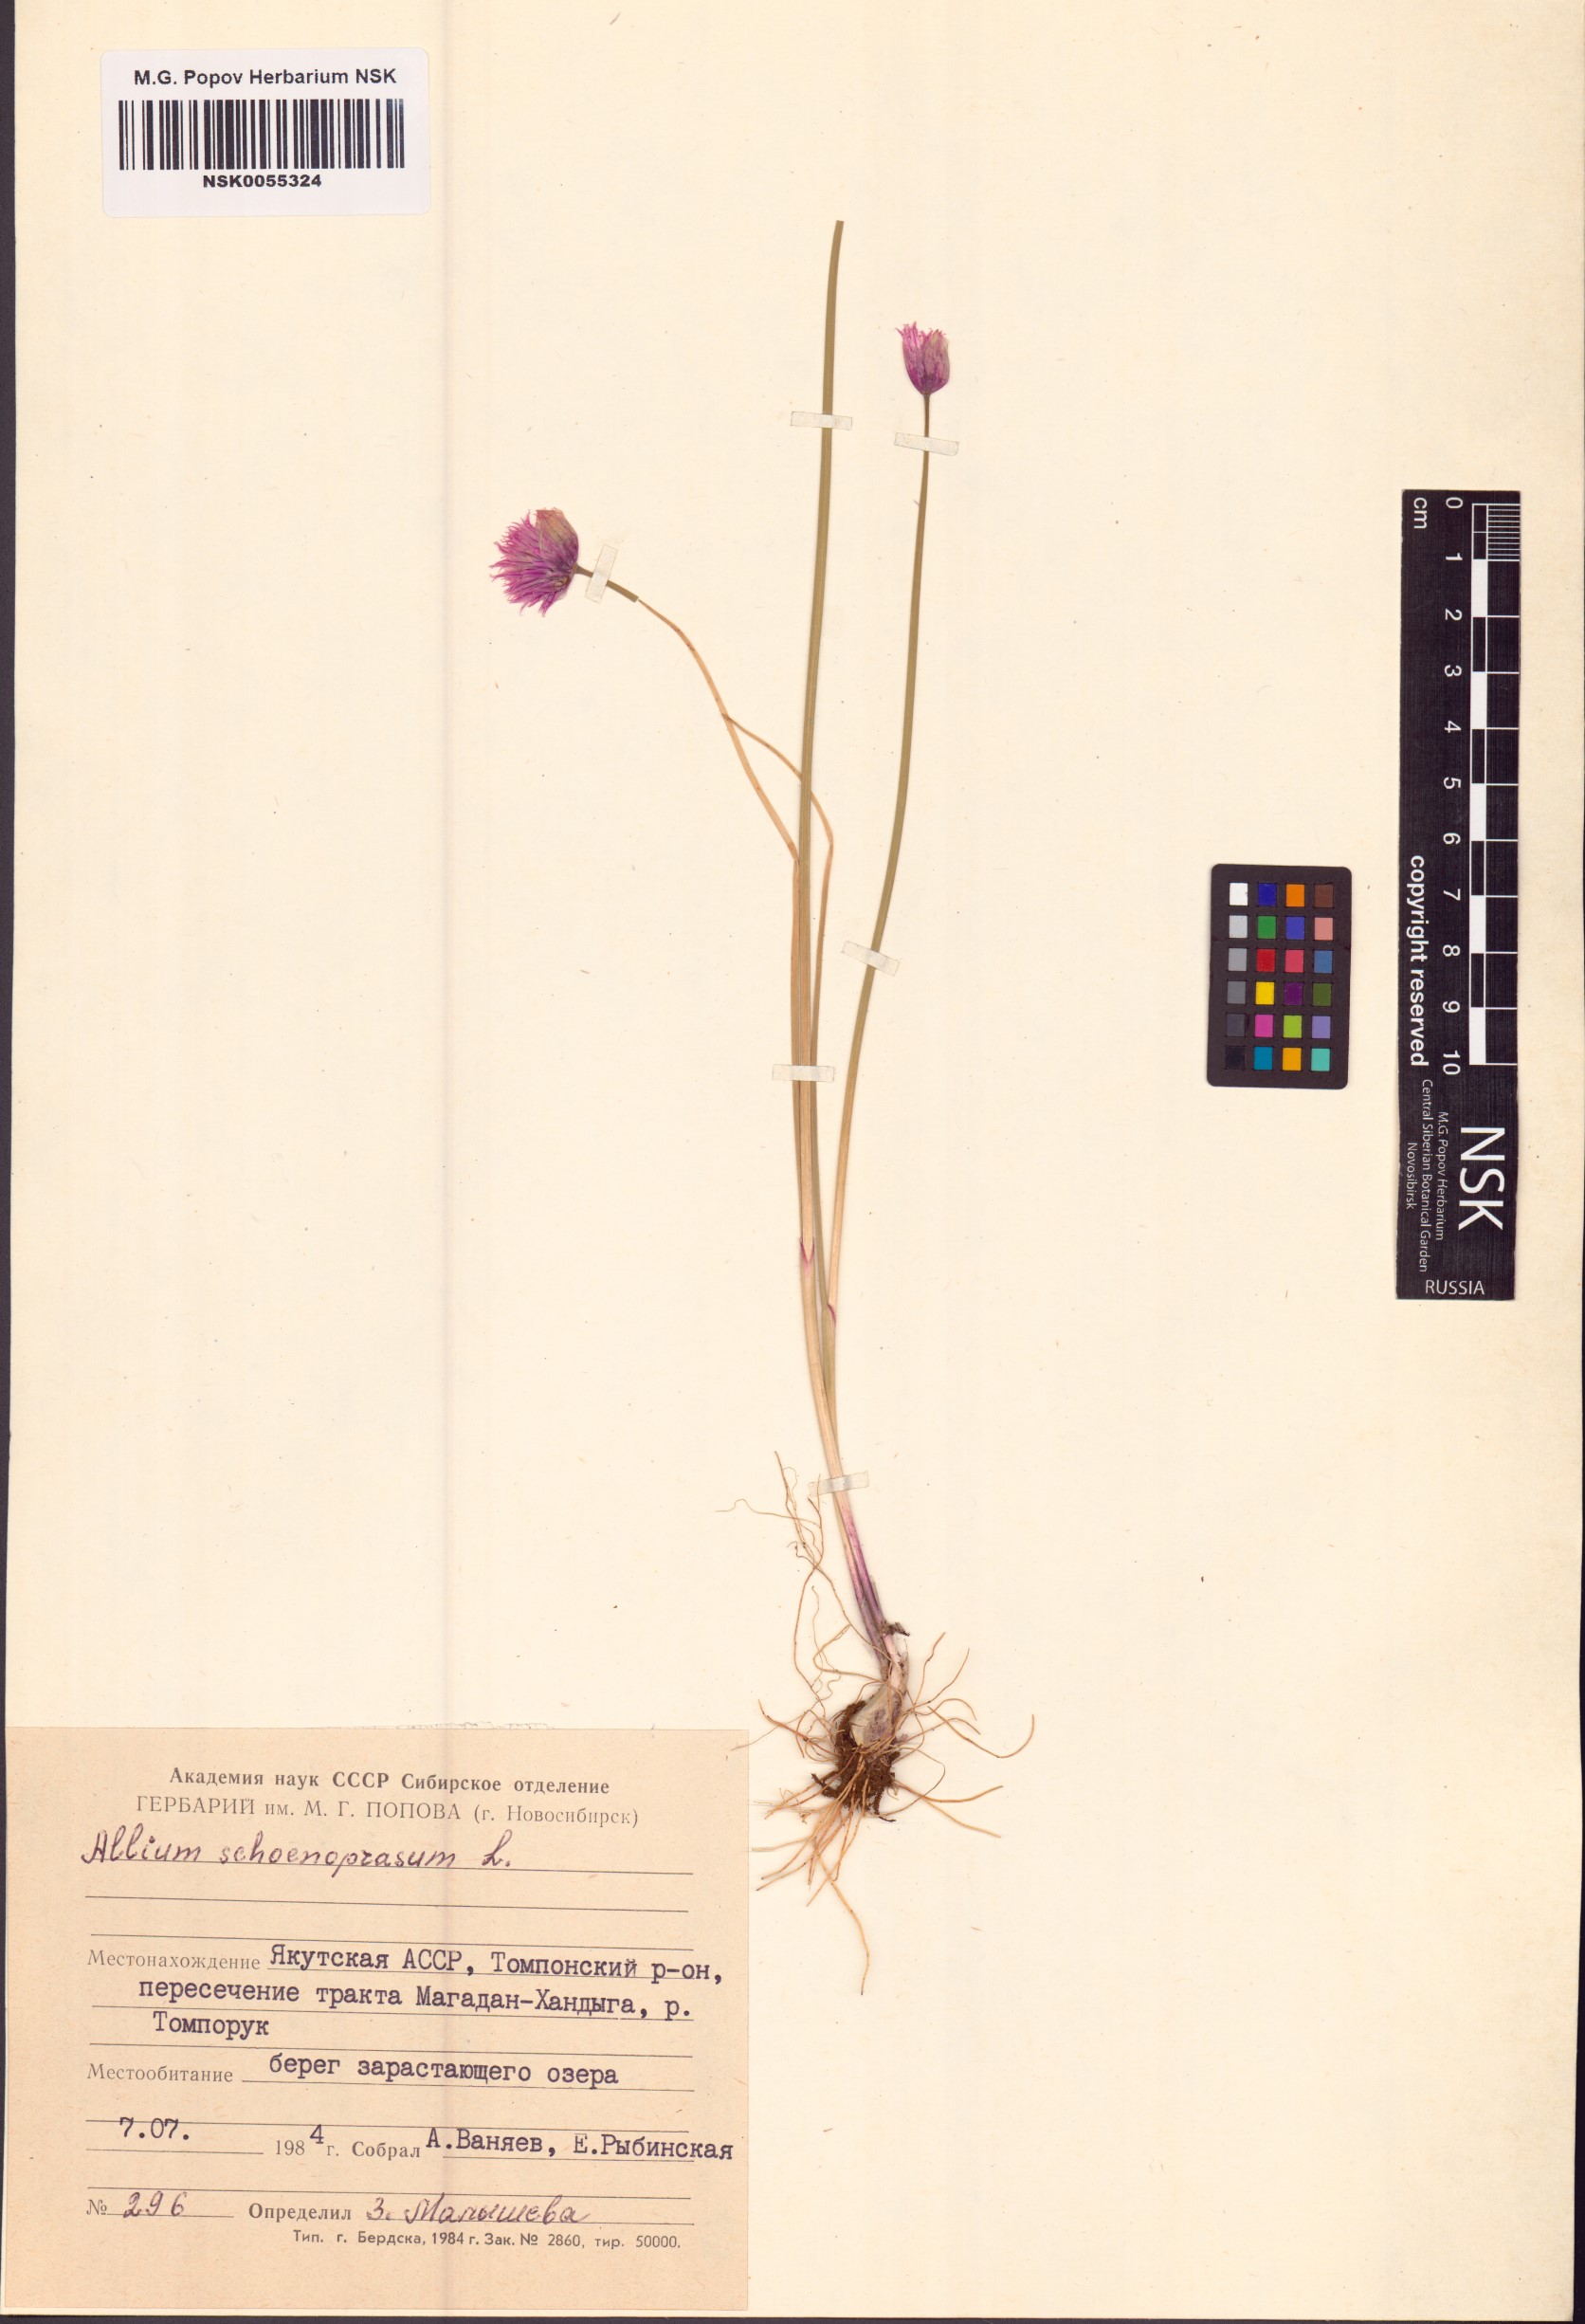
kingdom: Plantae
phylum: Tracheophyta
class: Liliopsida
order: Asparagales
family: Amaryllidaceae
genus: Allium
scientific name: Allium schoenoprasum
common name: Chives
